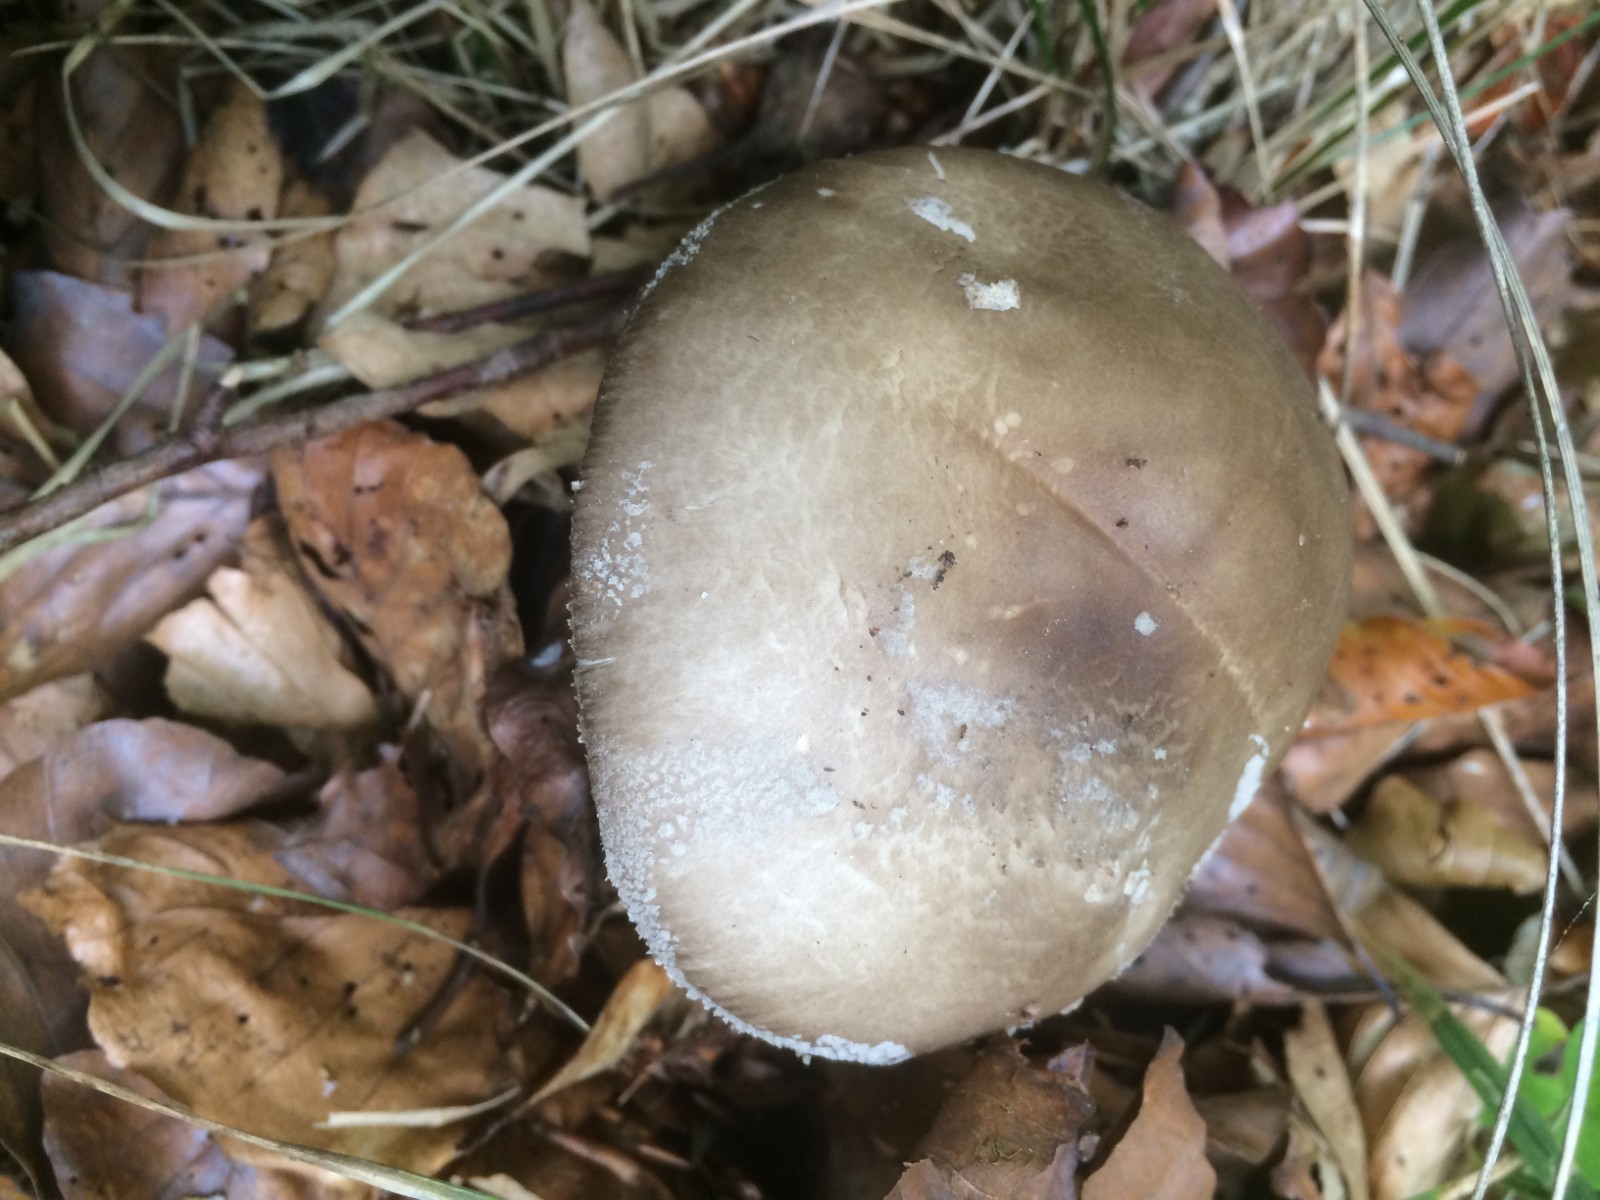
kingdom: Fungi
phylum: Basidiomycota
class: Agaricomycetes
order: Agaricales
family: Amanitaceae
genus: Amanita
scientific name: Amanita
